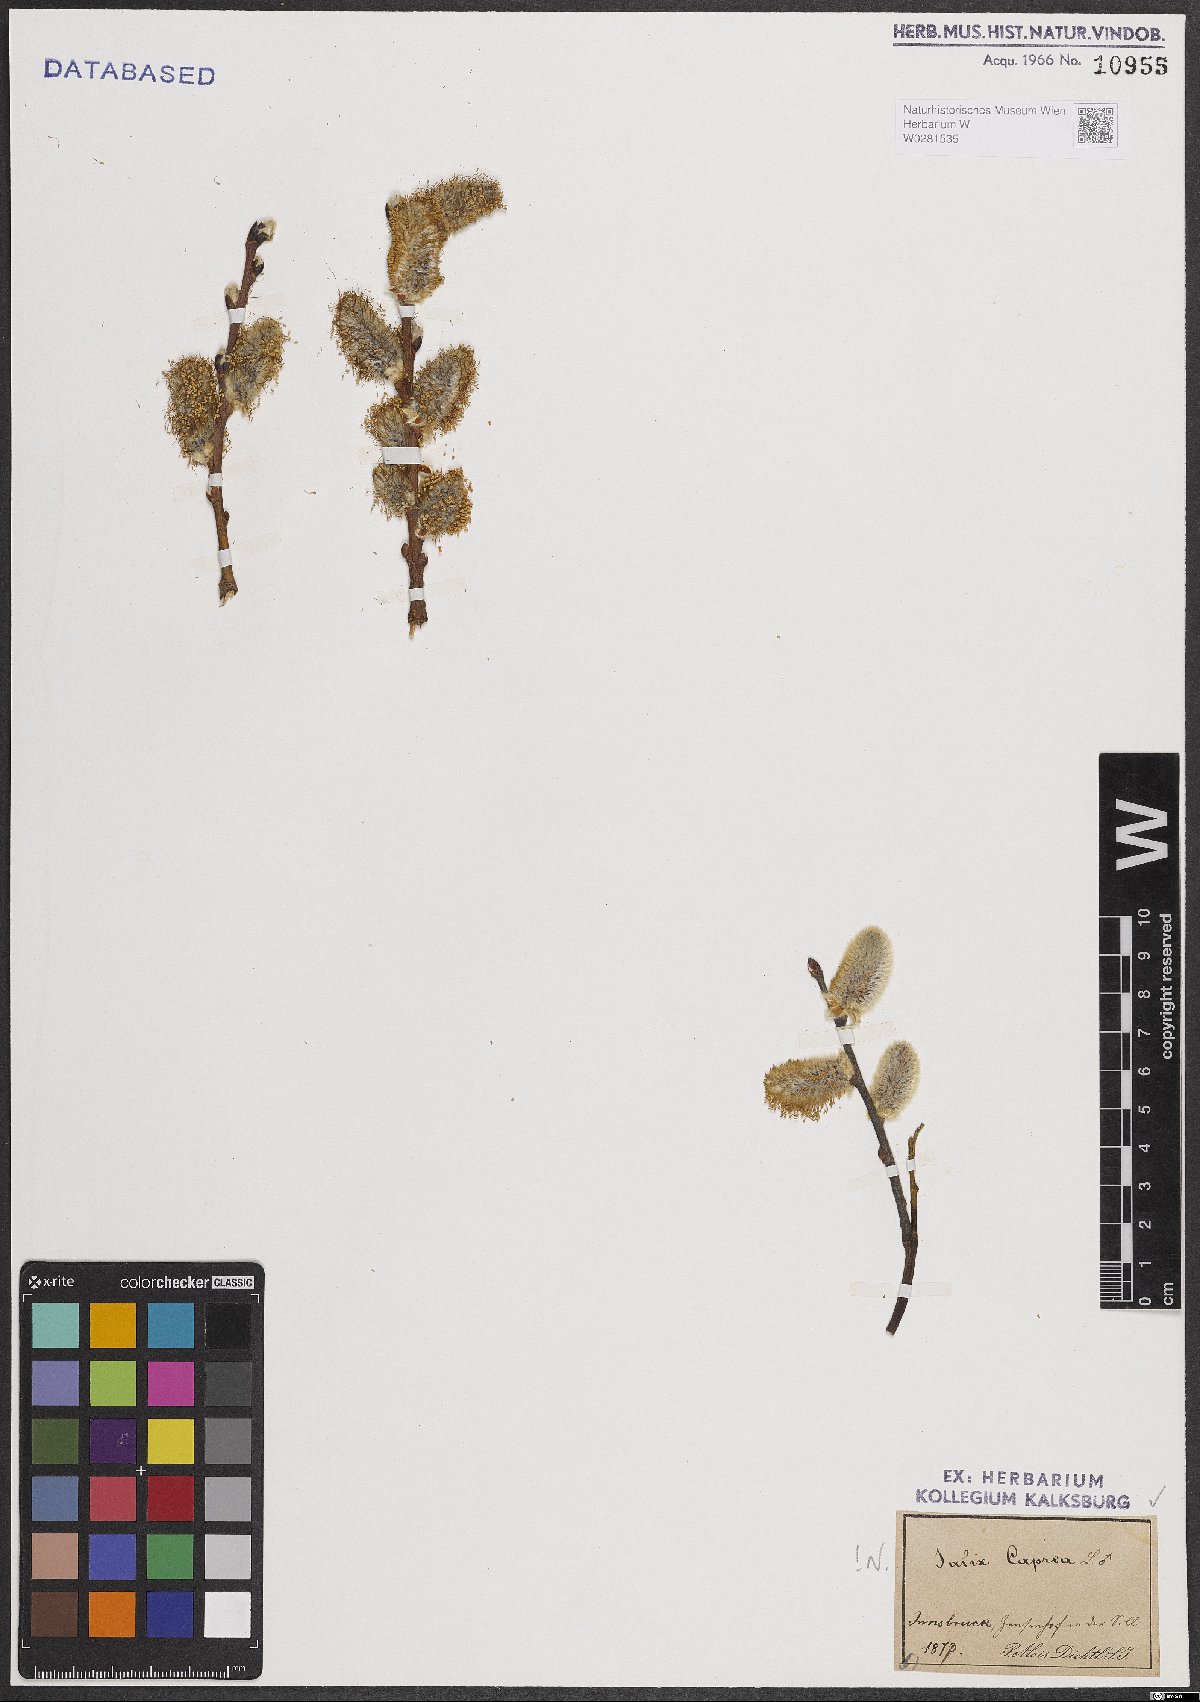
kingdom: Plantae
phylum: Tracheophyta
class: Magnoliopsida
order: Malpighiales
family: Salicaceae
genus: Salix
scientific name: Salix caprea
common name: Goat willow
